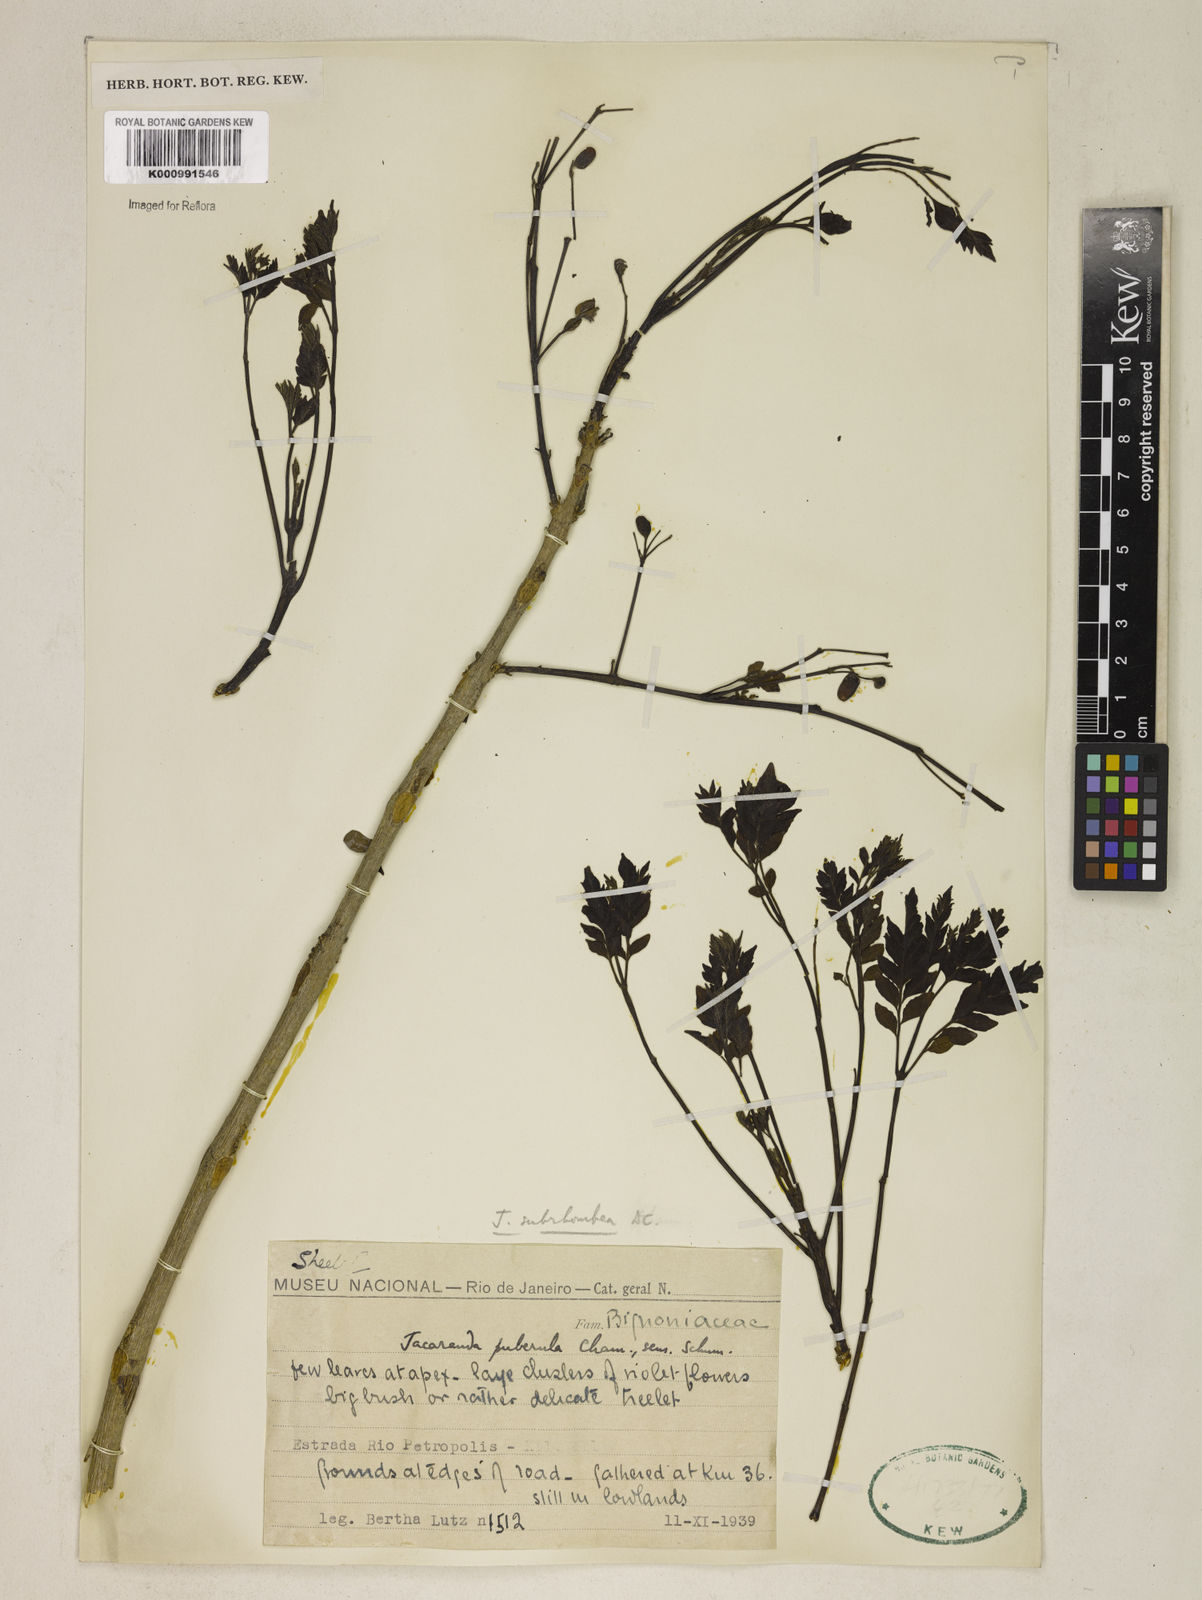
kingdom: Plantae
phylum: Tracheophyta
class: Magnoliopsida
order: Lamiales
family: Bignoniaceae
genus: Jacaranda
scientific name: Jacaranda puberula
